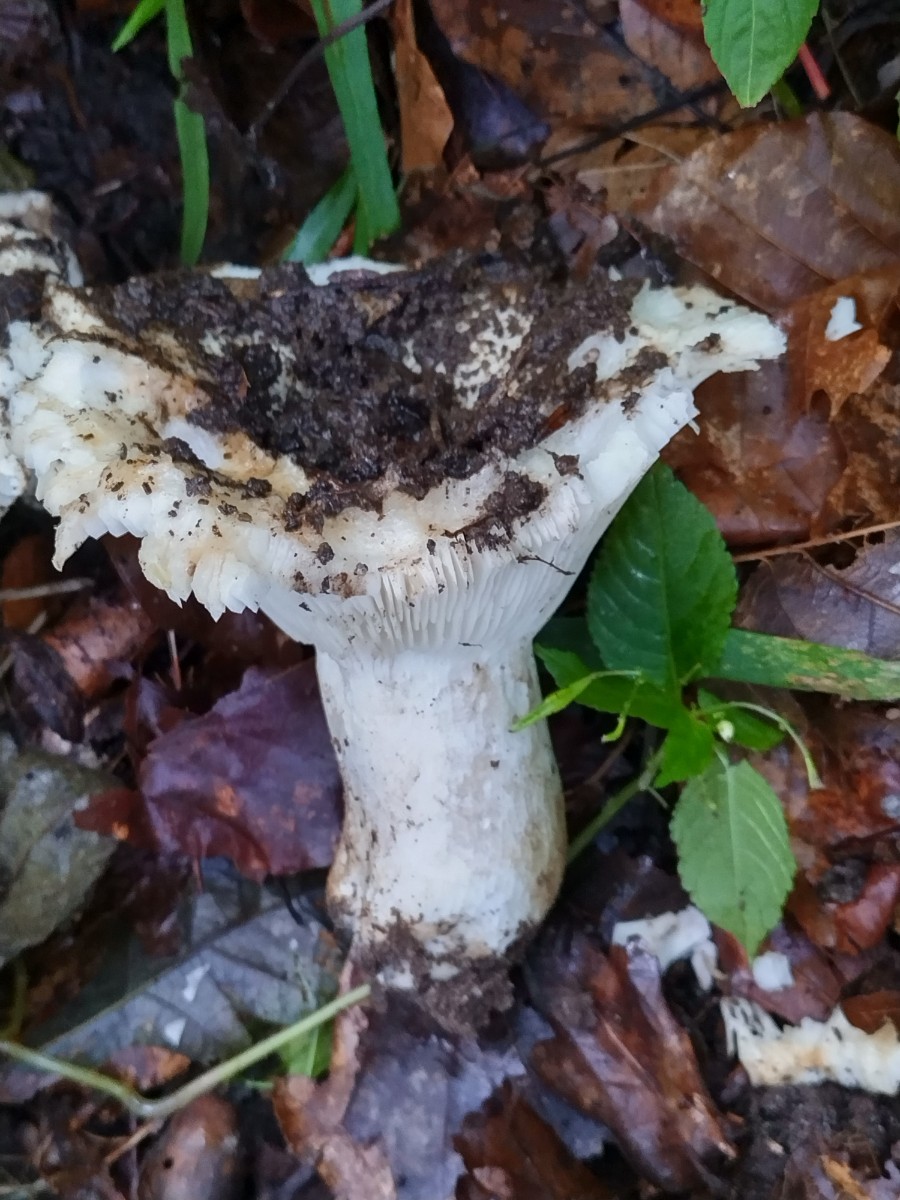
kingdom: Fungi
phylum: Basidiomycota
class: Agaricomycetes
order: Agaricales
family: Tricholomataceae
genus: Aspropaxillus
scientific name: Aspropaxillus giganteus
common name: kæmpe-tragtridderhat
